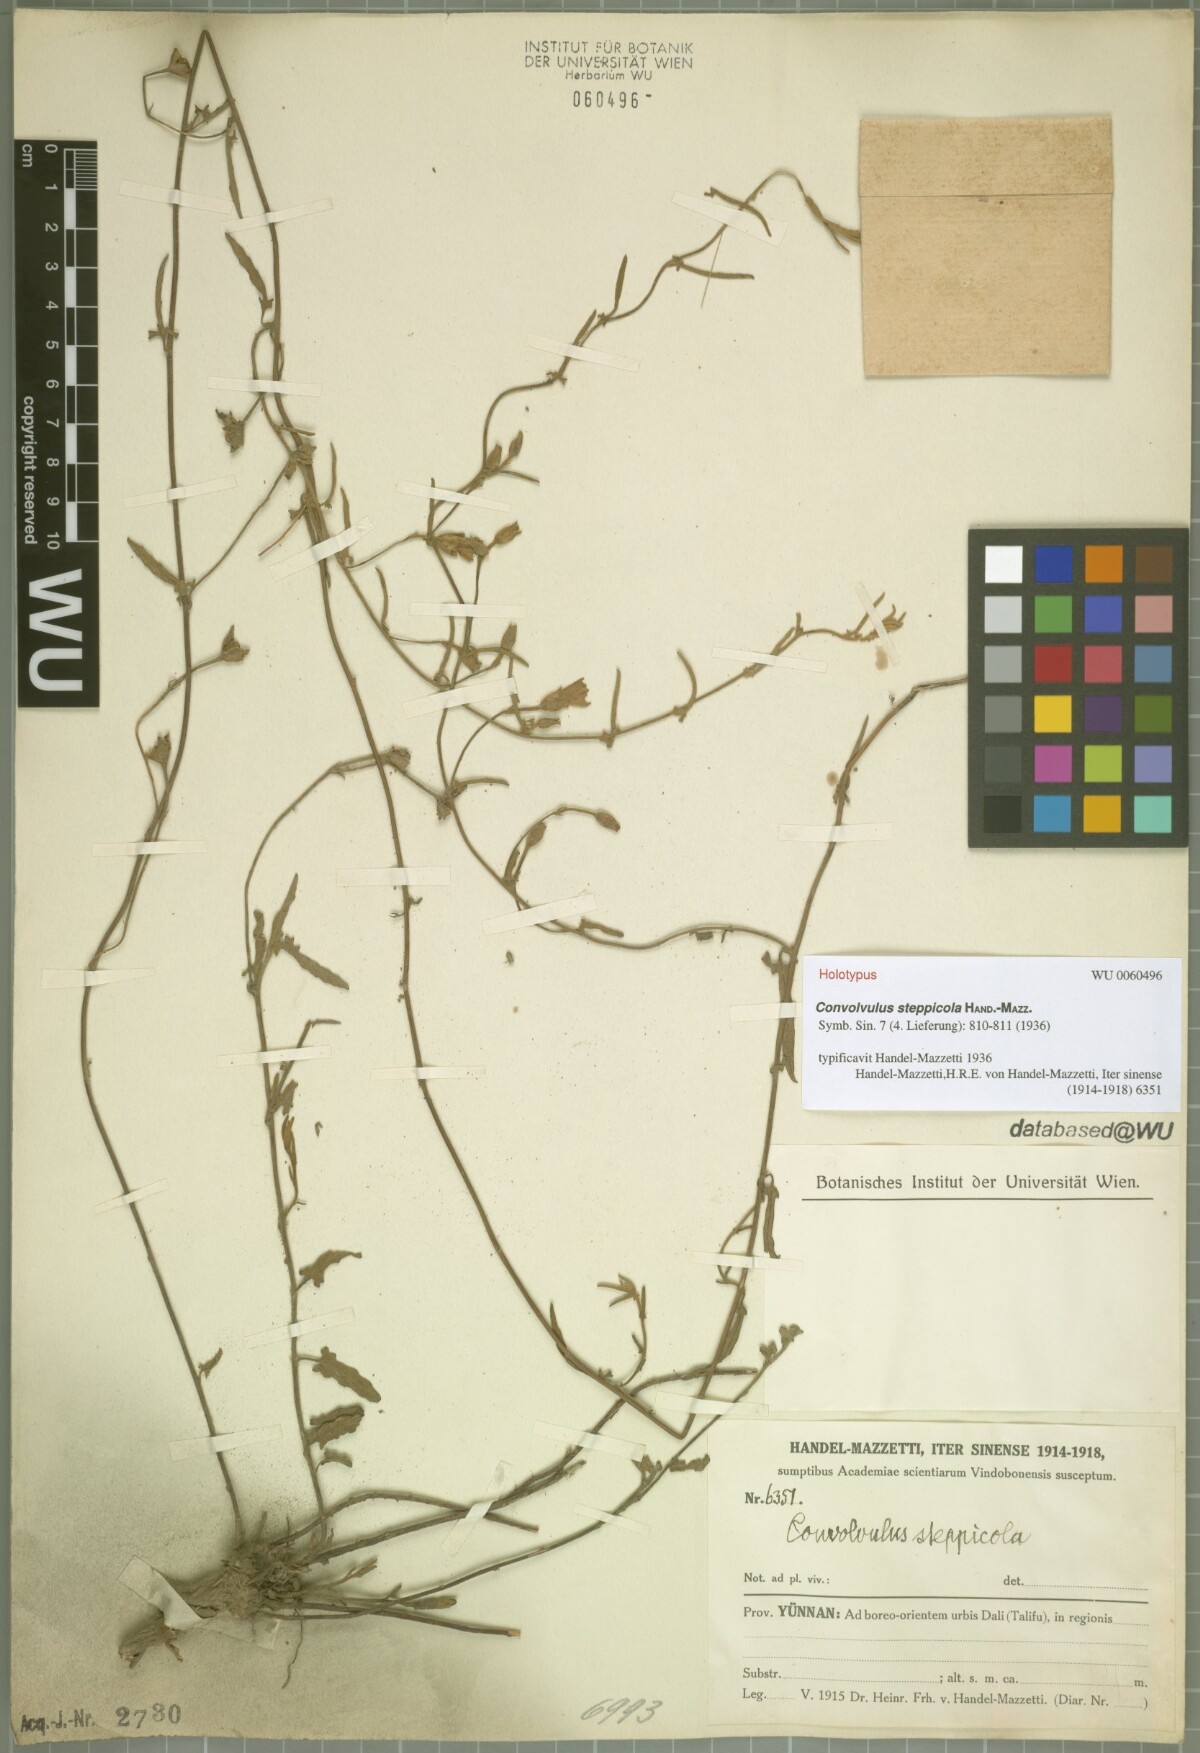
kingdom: Plantae
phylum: Tracheophyta
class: Magnoliopsida
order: Solanales
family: Convolvulaceae
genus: Convolvulus
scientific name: Convolvulus steppicola
